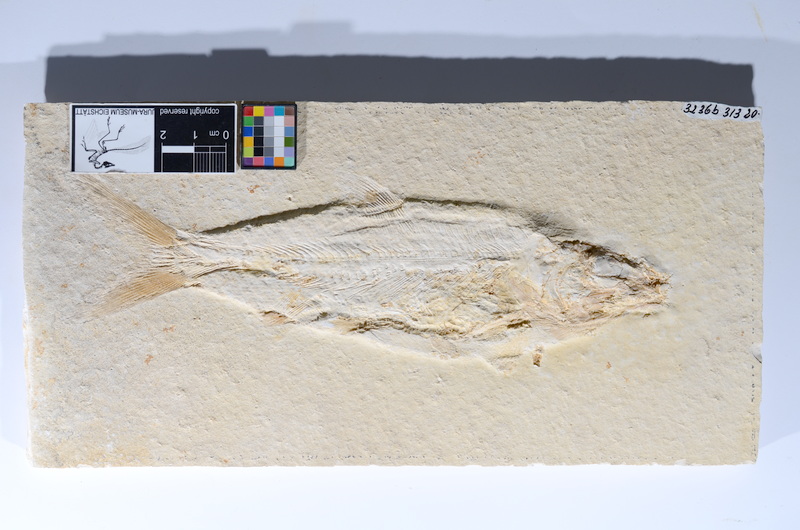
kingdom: Animalia
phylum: Chordata
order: Amiiformes
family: Caturidae
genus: Caturus
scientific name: Caturus furcatus
